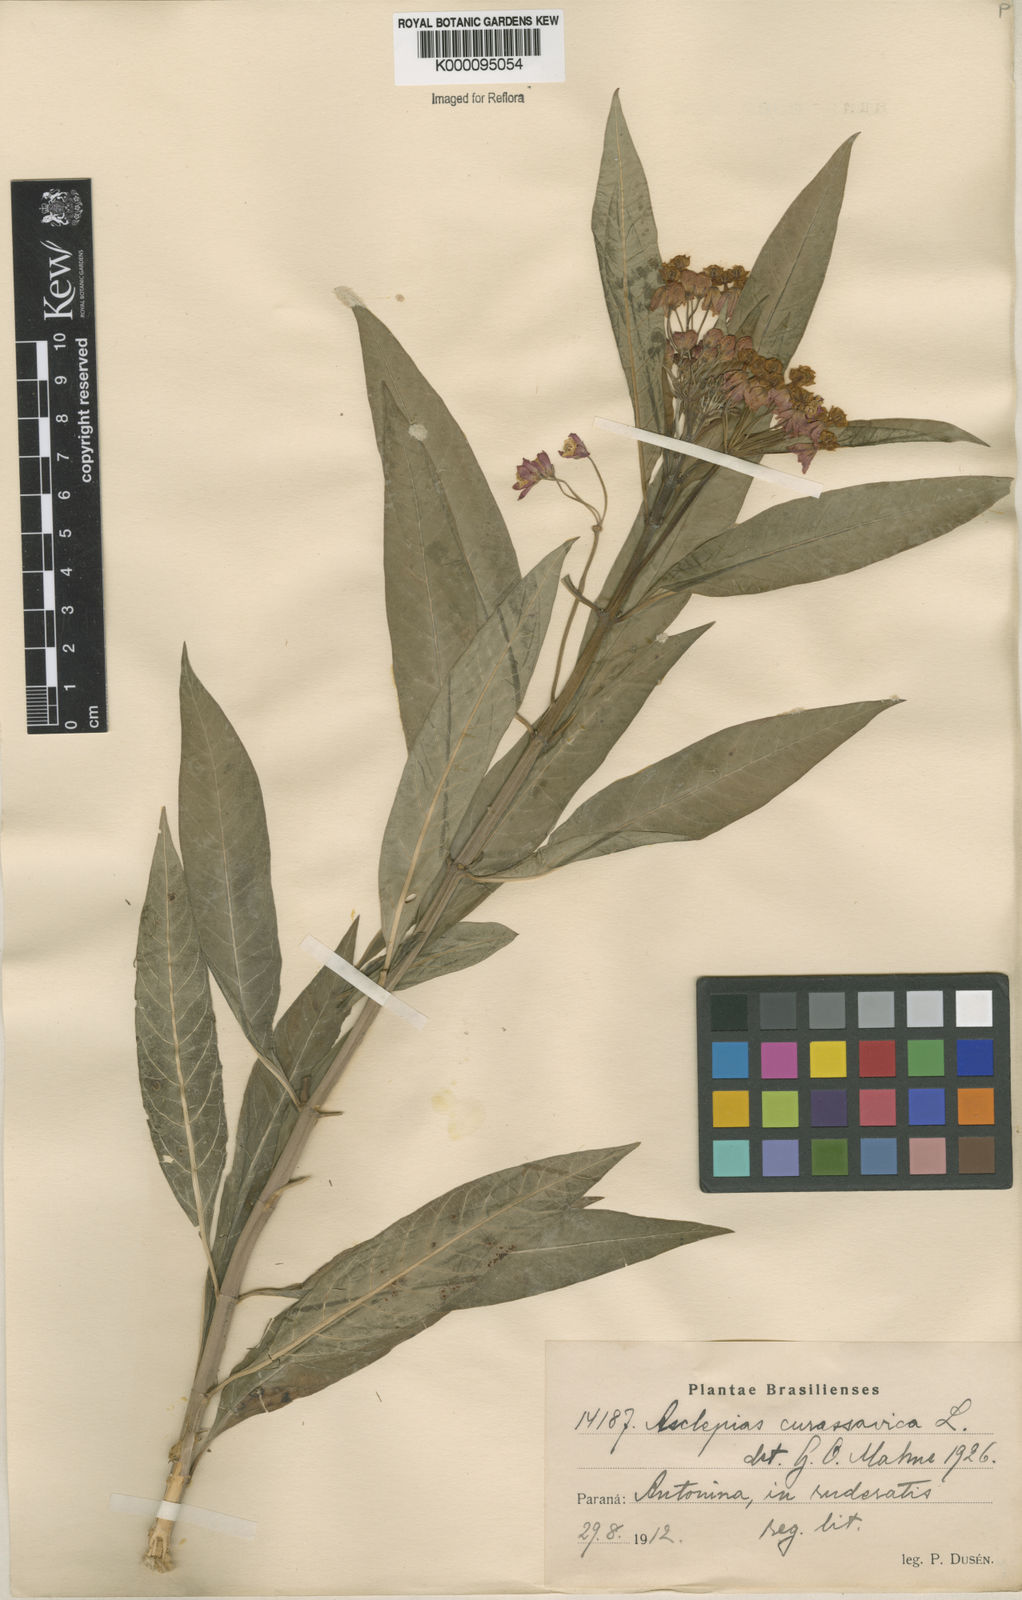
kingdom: Plantae
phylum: Tracheophyta
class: Magnoliopsida
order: Gentianales
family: Apocynaceae
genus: Asclepias
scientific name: Asclepias curassavica
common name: Bloodflower
